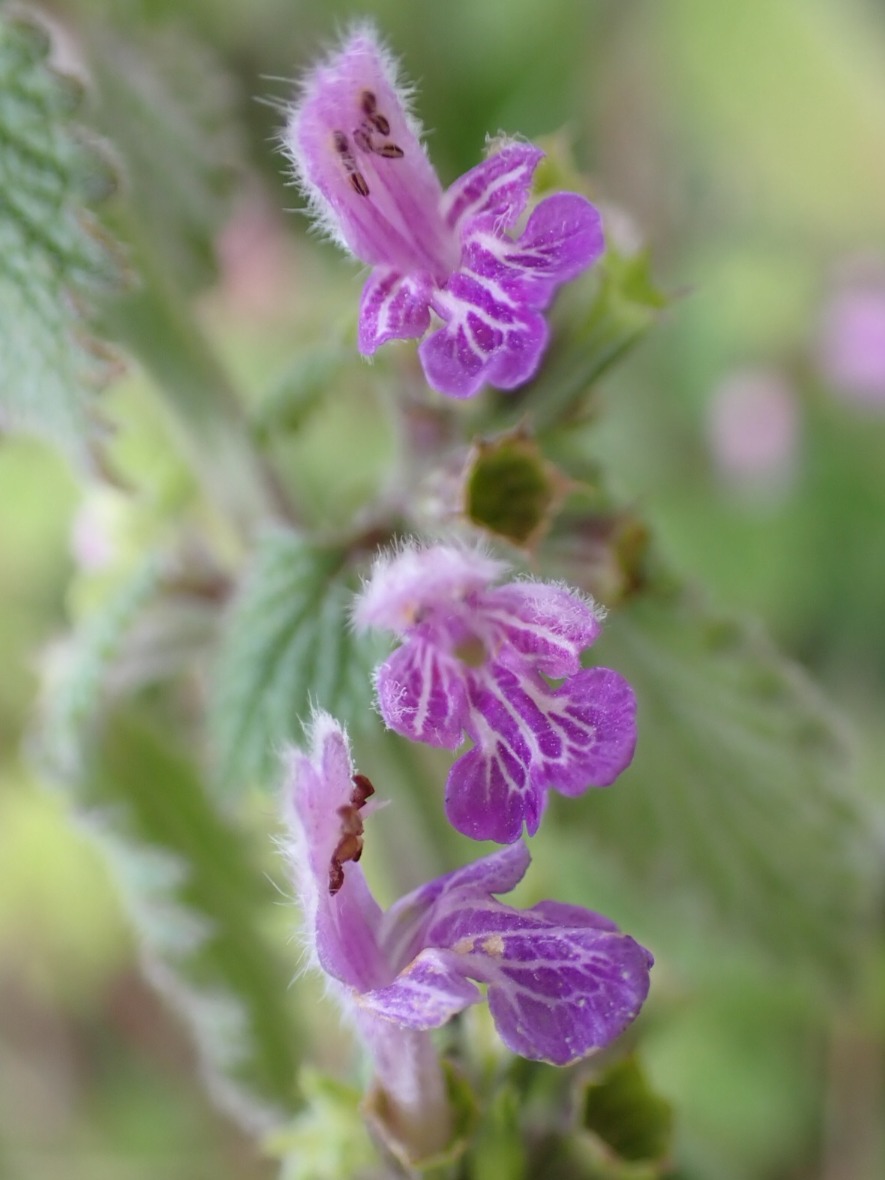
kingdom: Plantae
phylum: Tracheophyta
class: Magnoliopsida
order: Lamiales
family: Lamiaceae
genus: Ballota
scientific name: Ballota nigra
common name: Tandbæger
